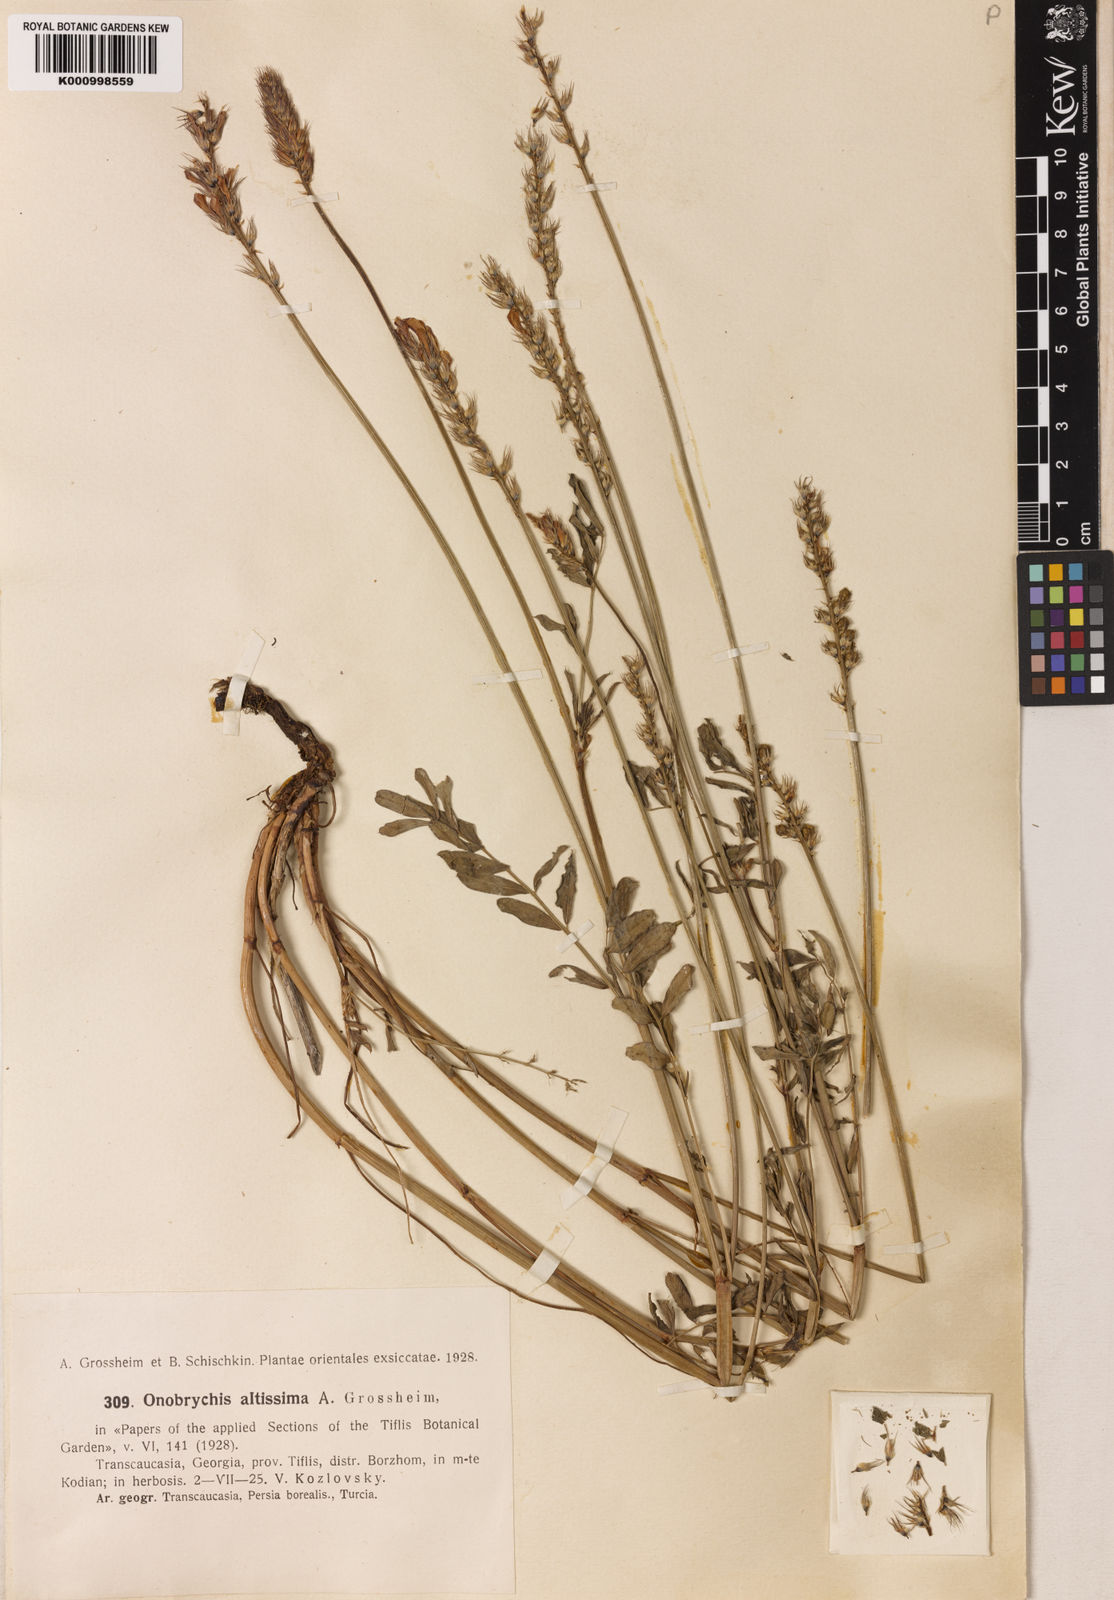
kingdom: Plantae
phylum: Tracheophyta
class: Magnoliopsida
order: Fabales
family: Fabaceae
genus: Onobrychis
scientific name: Onobrychis altissima
